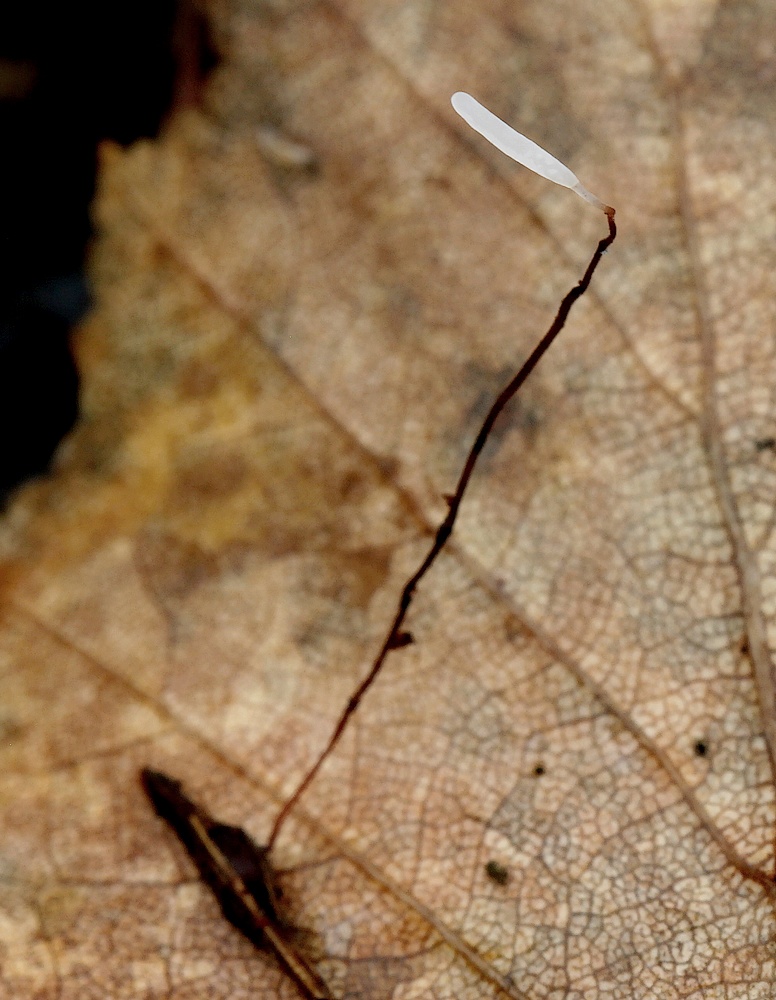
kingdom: Fungi
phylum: Basidiomycota
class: Agaricomycetes
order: Agaricales
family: Typhulaceae
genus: Typhula
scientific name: Typhula erythropus
